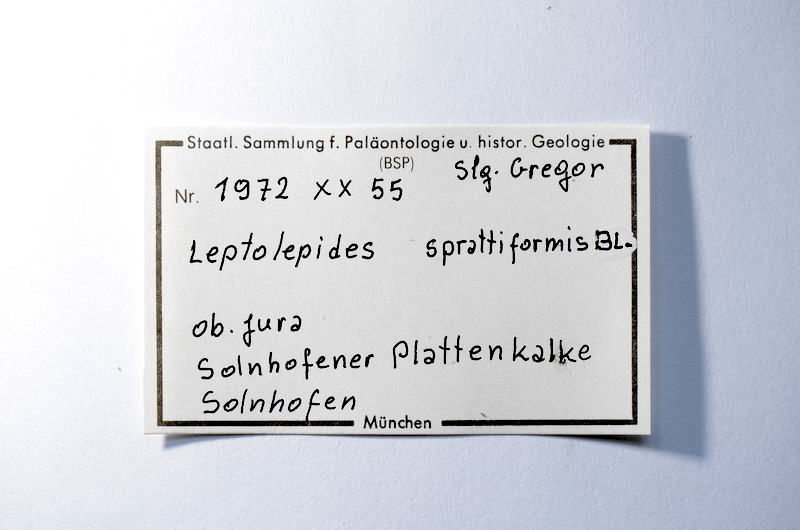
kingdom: Animalia
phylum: Chordata
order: Salmoniformes
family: Orthogonikleithridae
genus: Leptolepides
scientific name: Leptolepides sprattiformis
